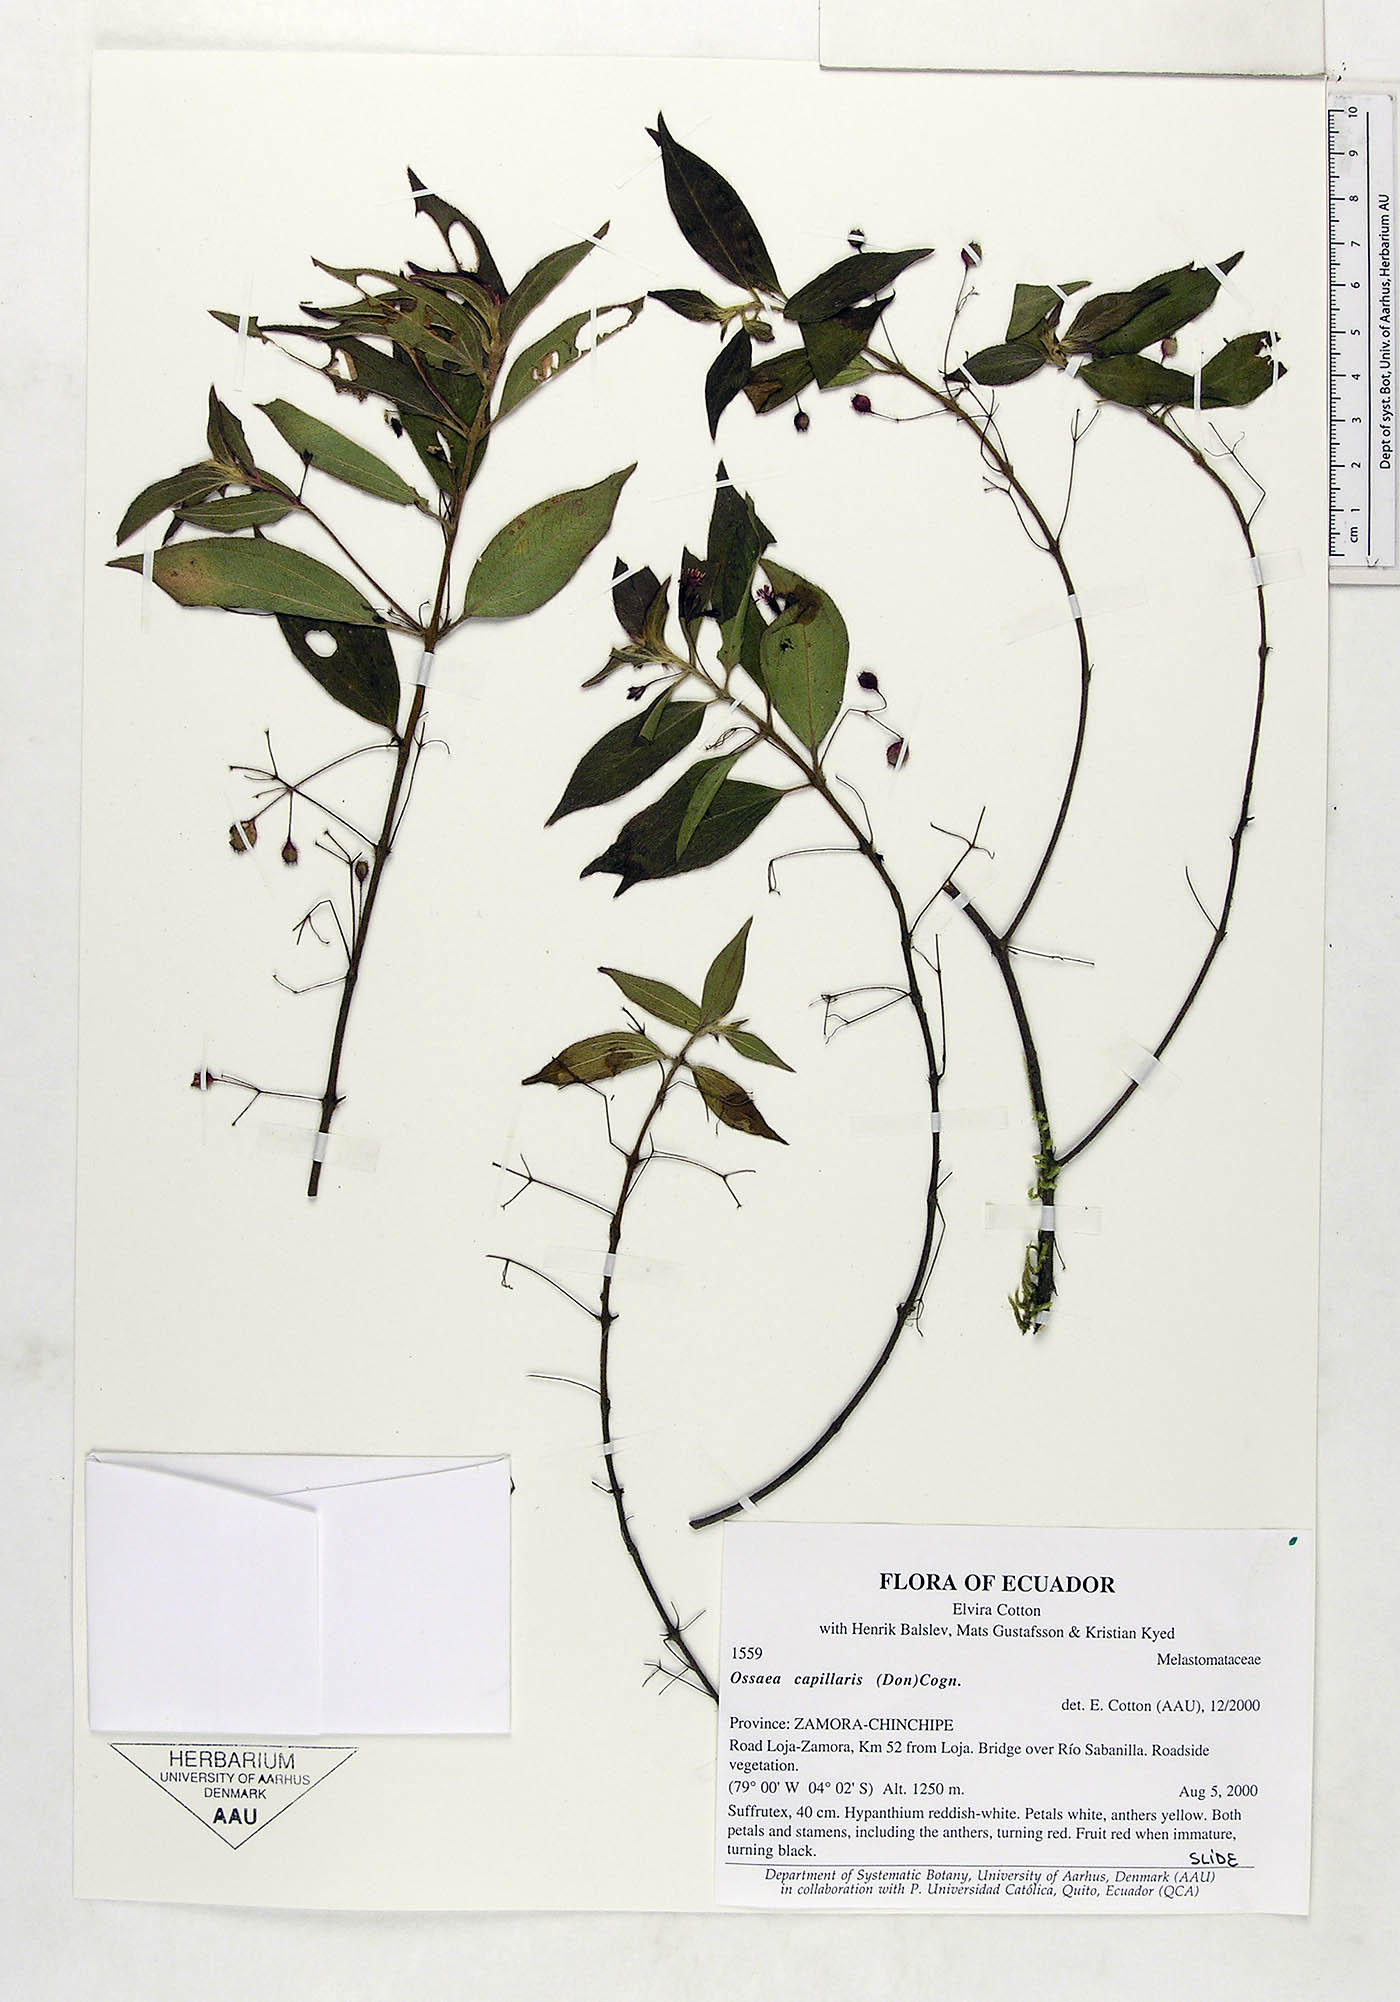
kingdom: Plantae
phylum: Tracheophyta
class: Magnoliopsida
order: Myrtales
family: Melastomataceae
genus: Miconia
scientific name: Miconia leptopus
